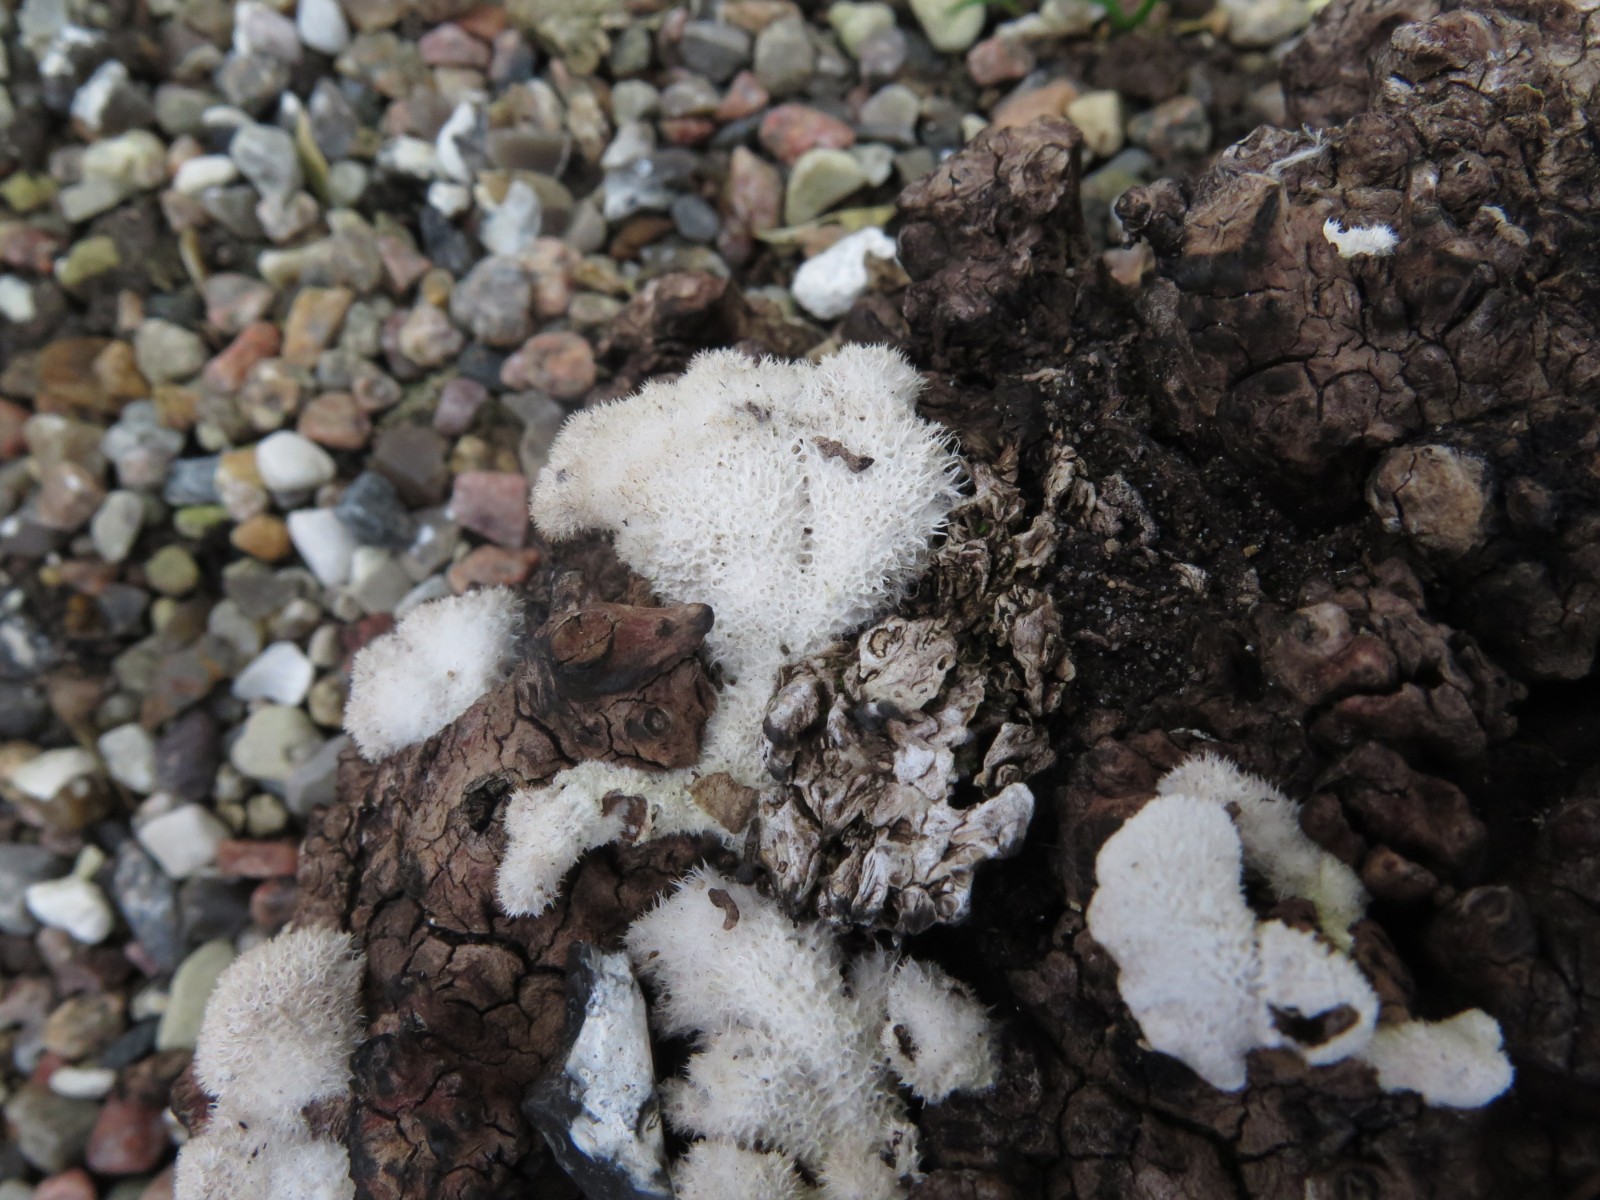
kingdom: Fungi
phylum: Basidiomycota
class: Agaricomycetes
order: Agaricales
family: Schizophyllaceae
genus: Schizophyllum
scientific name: Schizophyllum commune
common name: kløvblad
